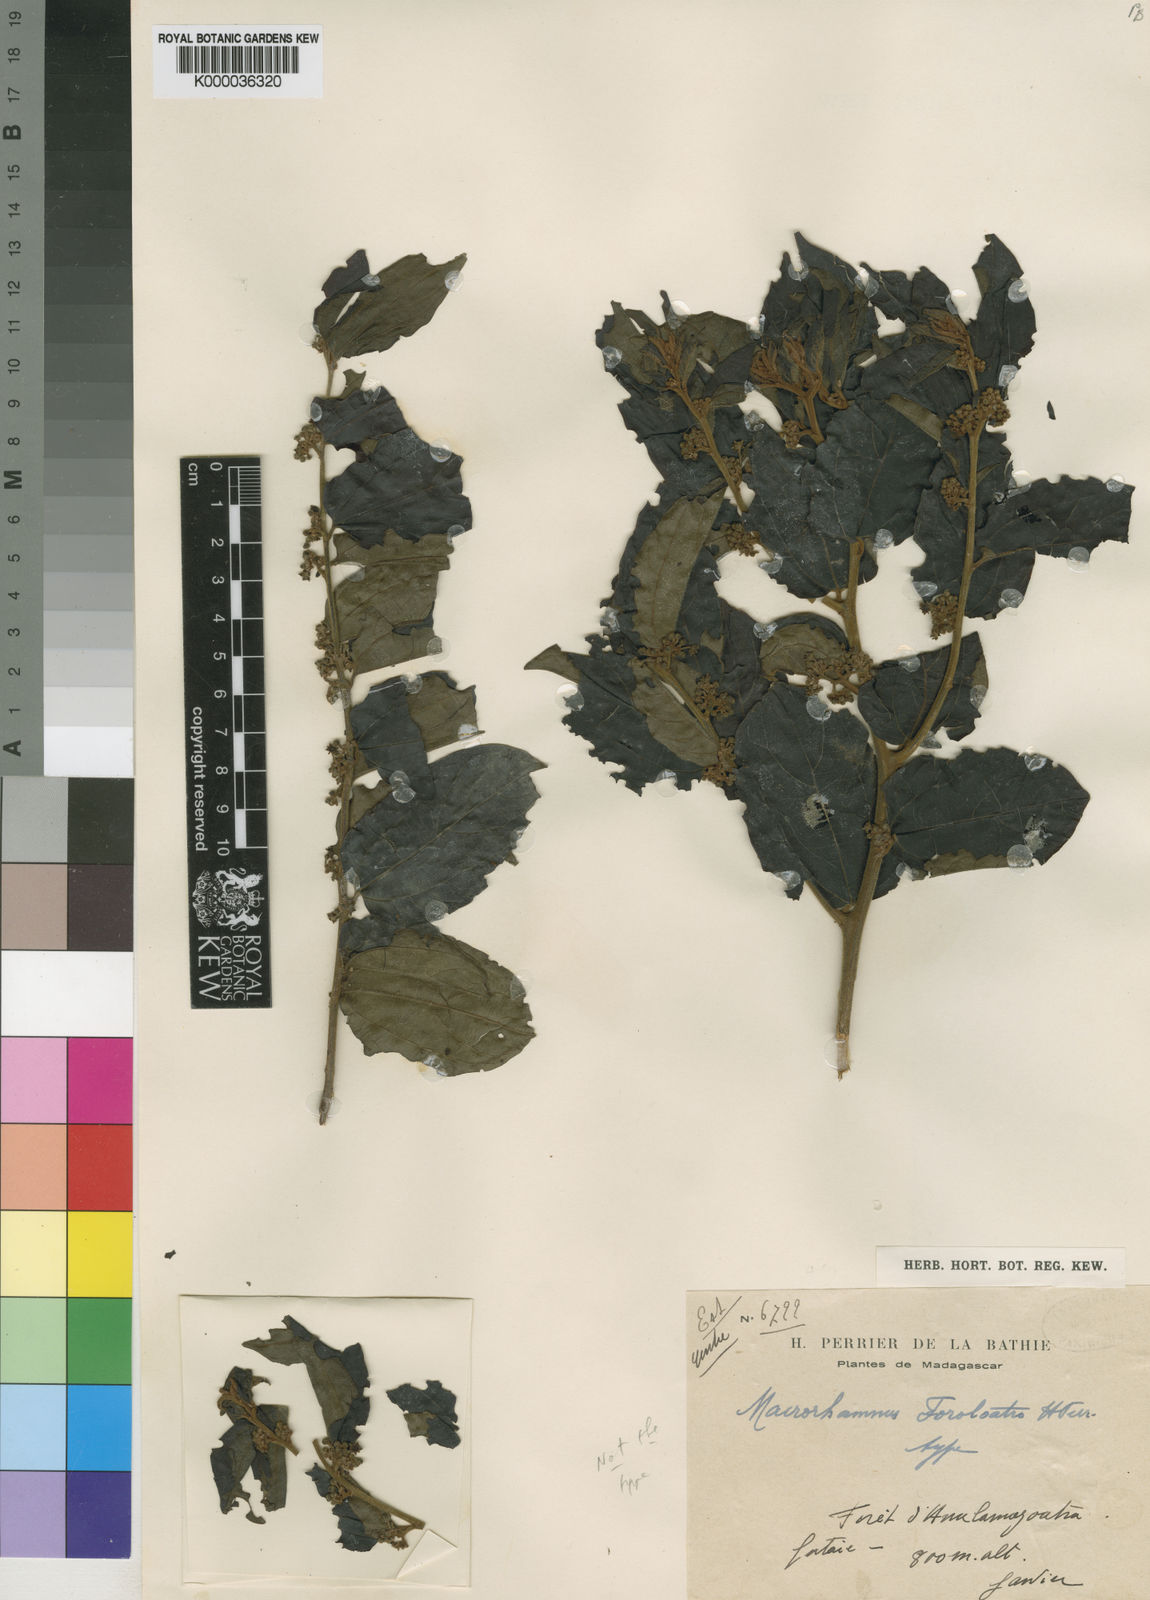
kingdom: Plantae
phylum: Tracheophyta
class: Magnoliopsida
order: Rosales
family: Rhamnaceae
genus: Colubrina
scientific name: Colubrina faralaotra
